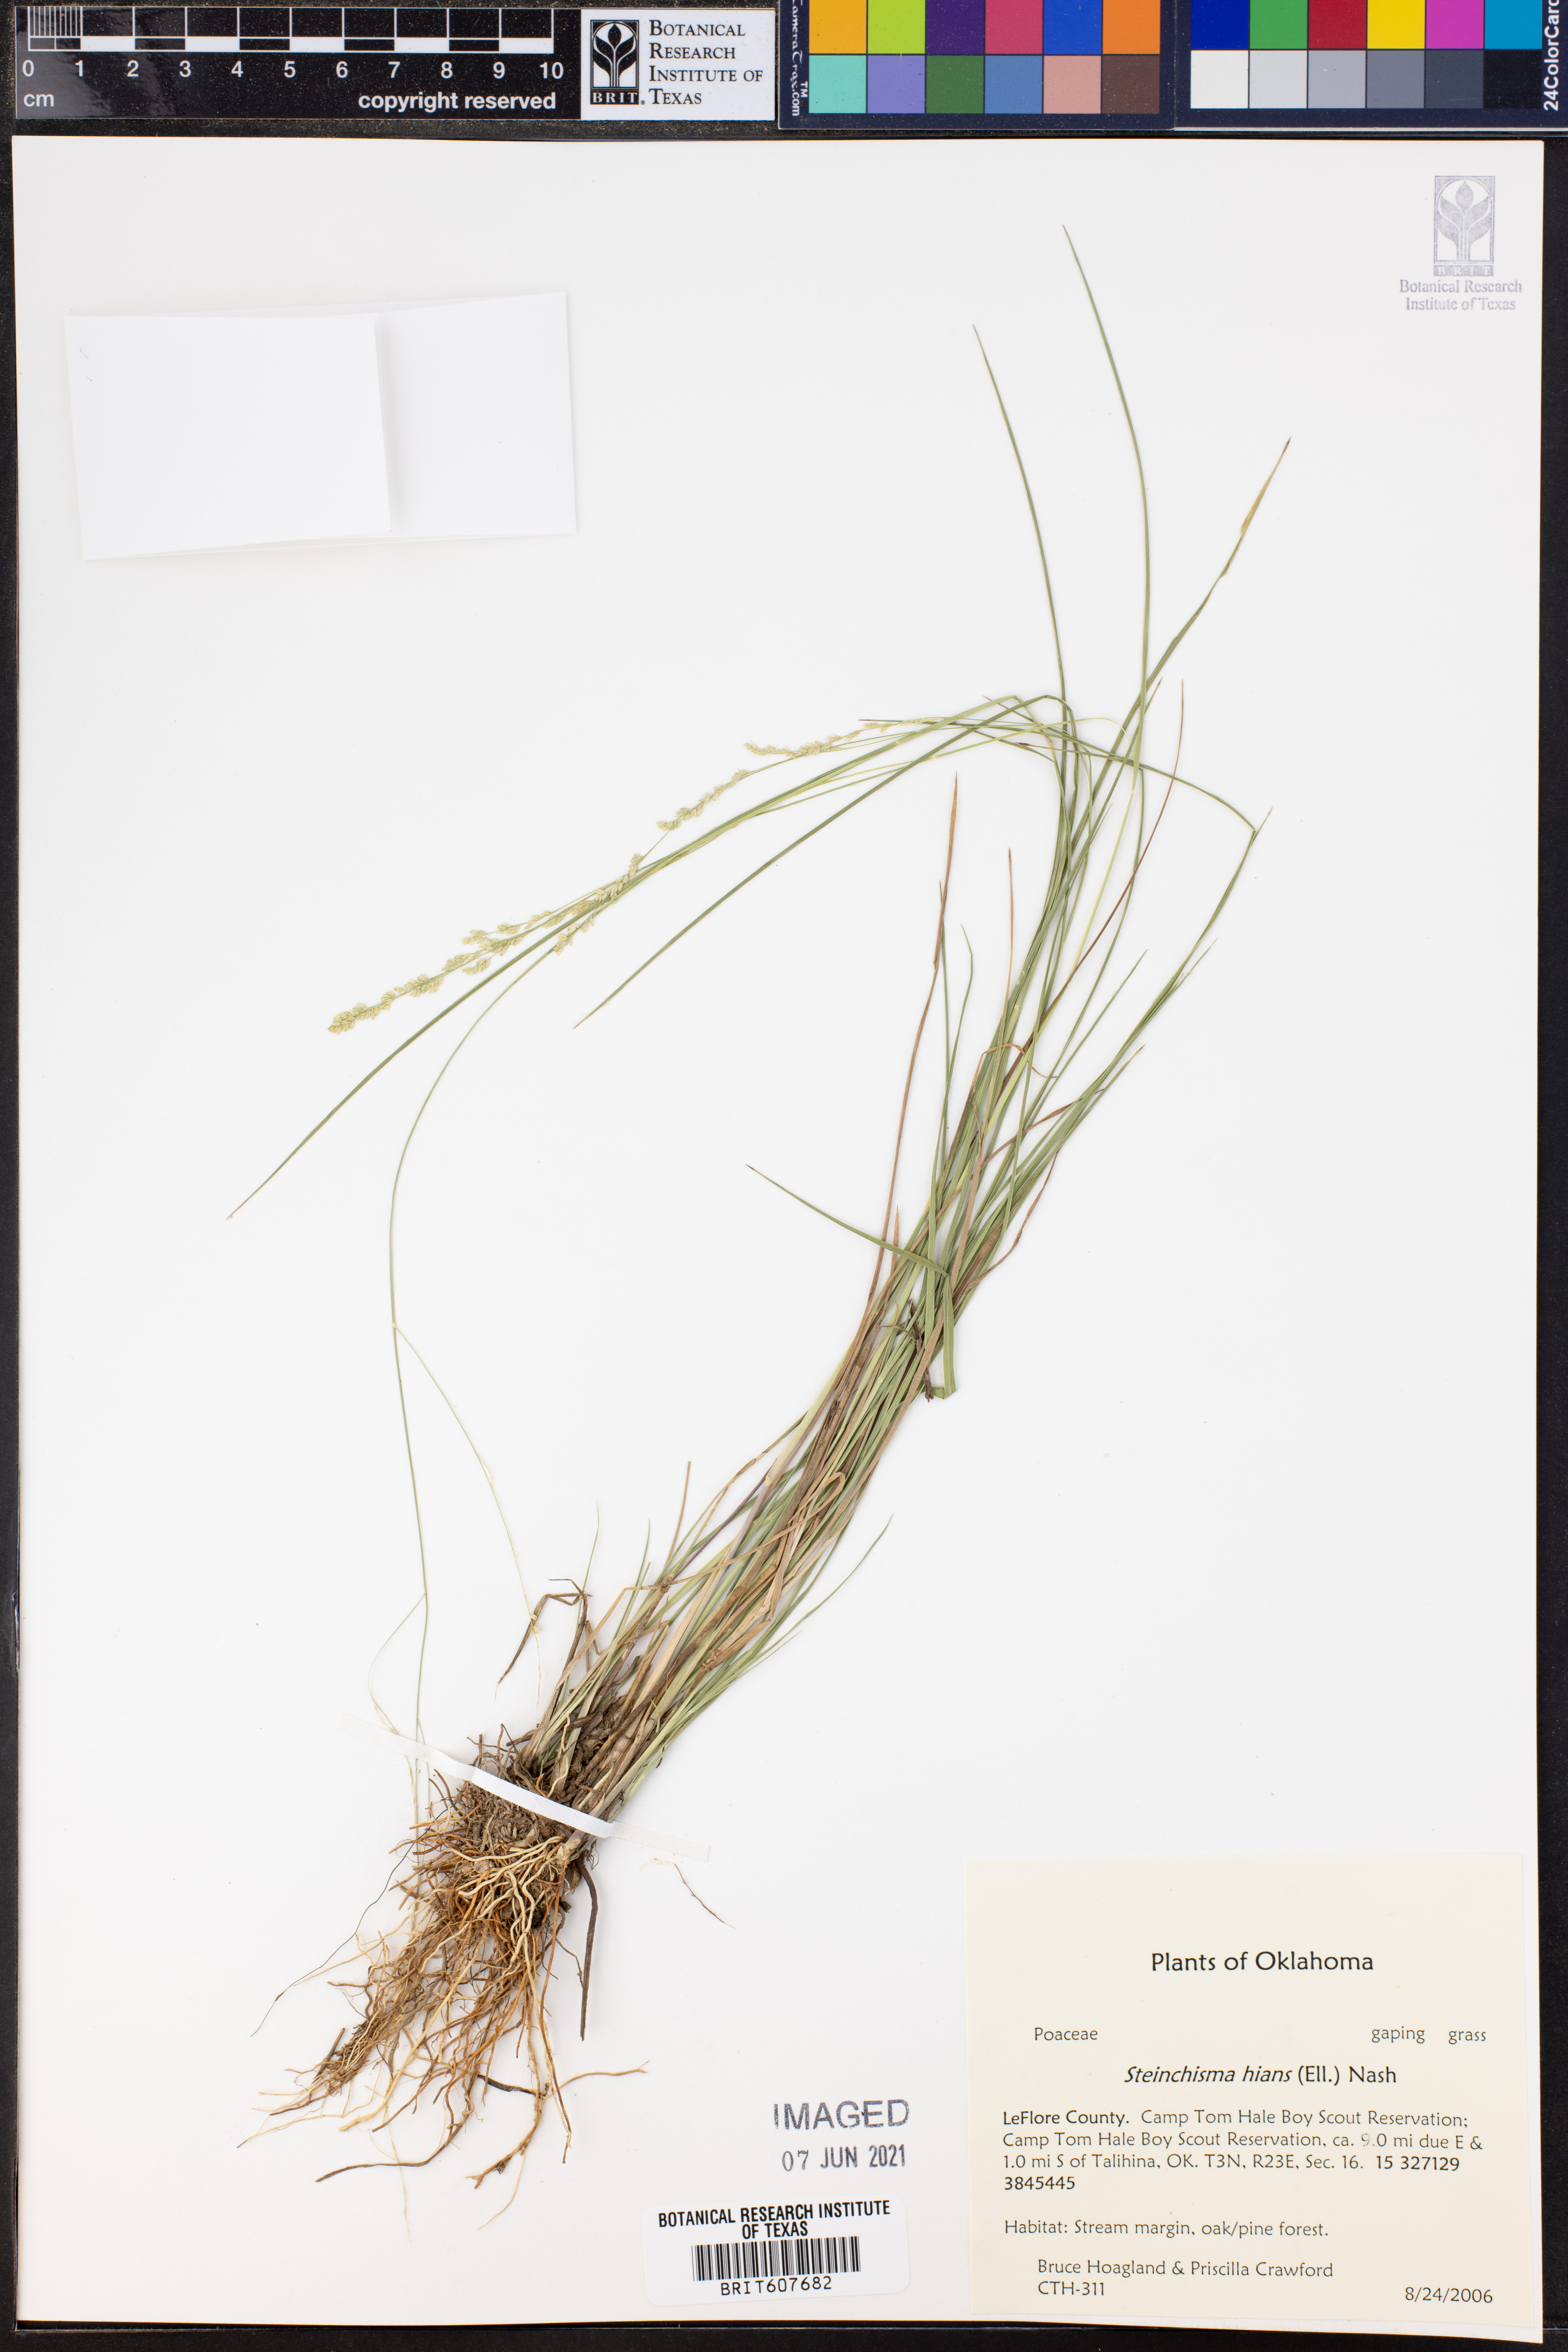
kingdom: Plantae
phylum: Tracheophyta
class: Liliopsida
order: Poales
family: Poaceae
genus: Steinchisma
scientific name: Steinchisma hians
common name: Gaping panic grass
